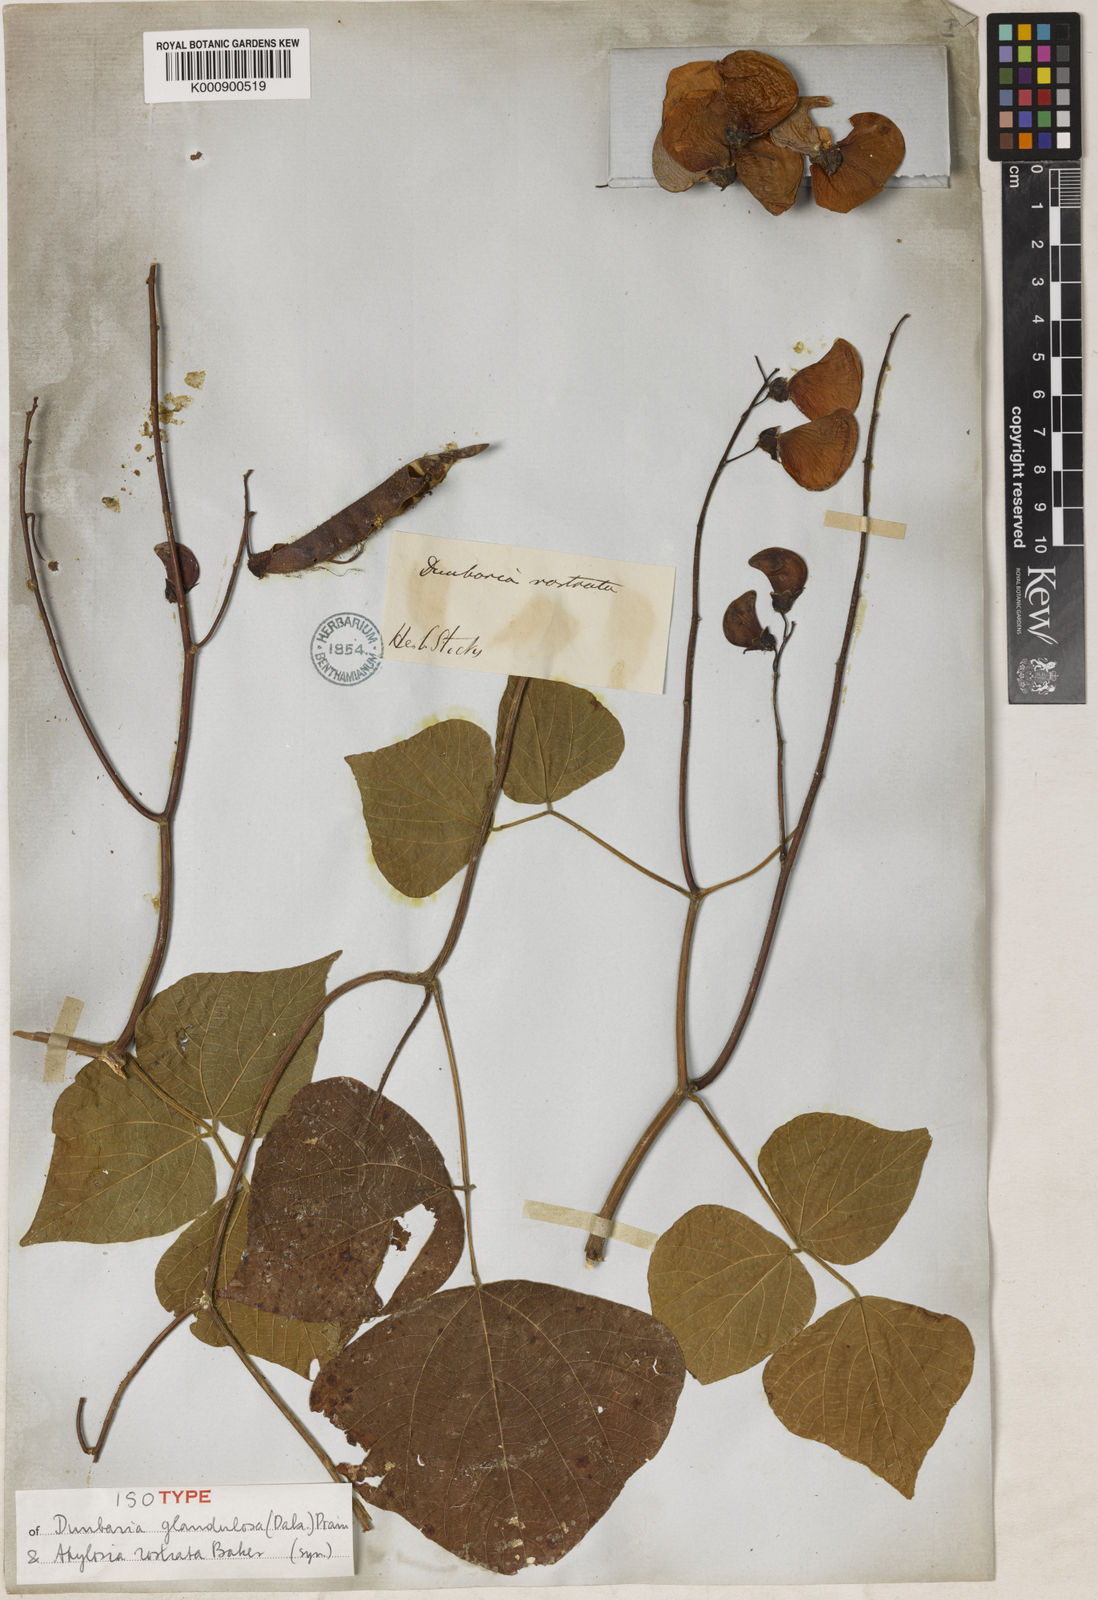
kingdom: Plantae
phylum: Tracheophyta
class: Magnoliopsida
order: Fabales
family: Fabaceae
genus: Dunbaria
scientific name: Dunbaria glandulosa
